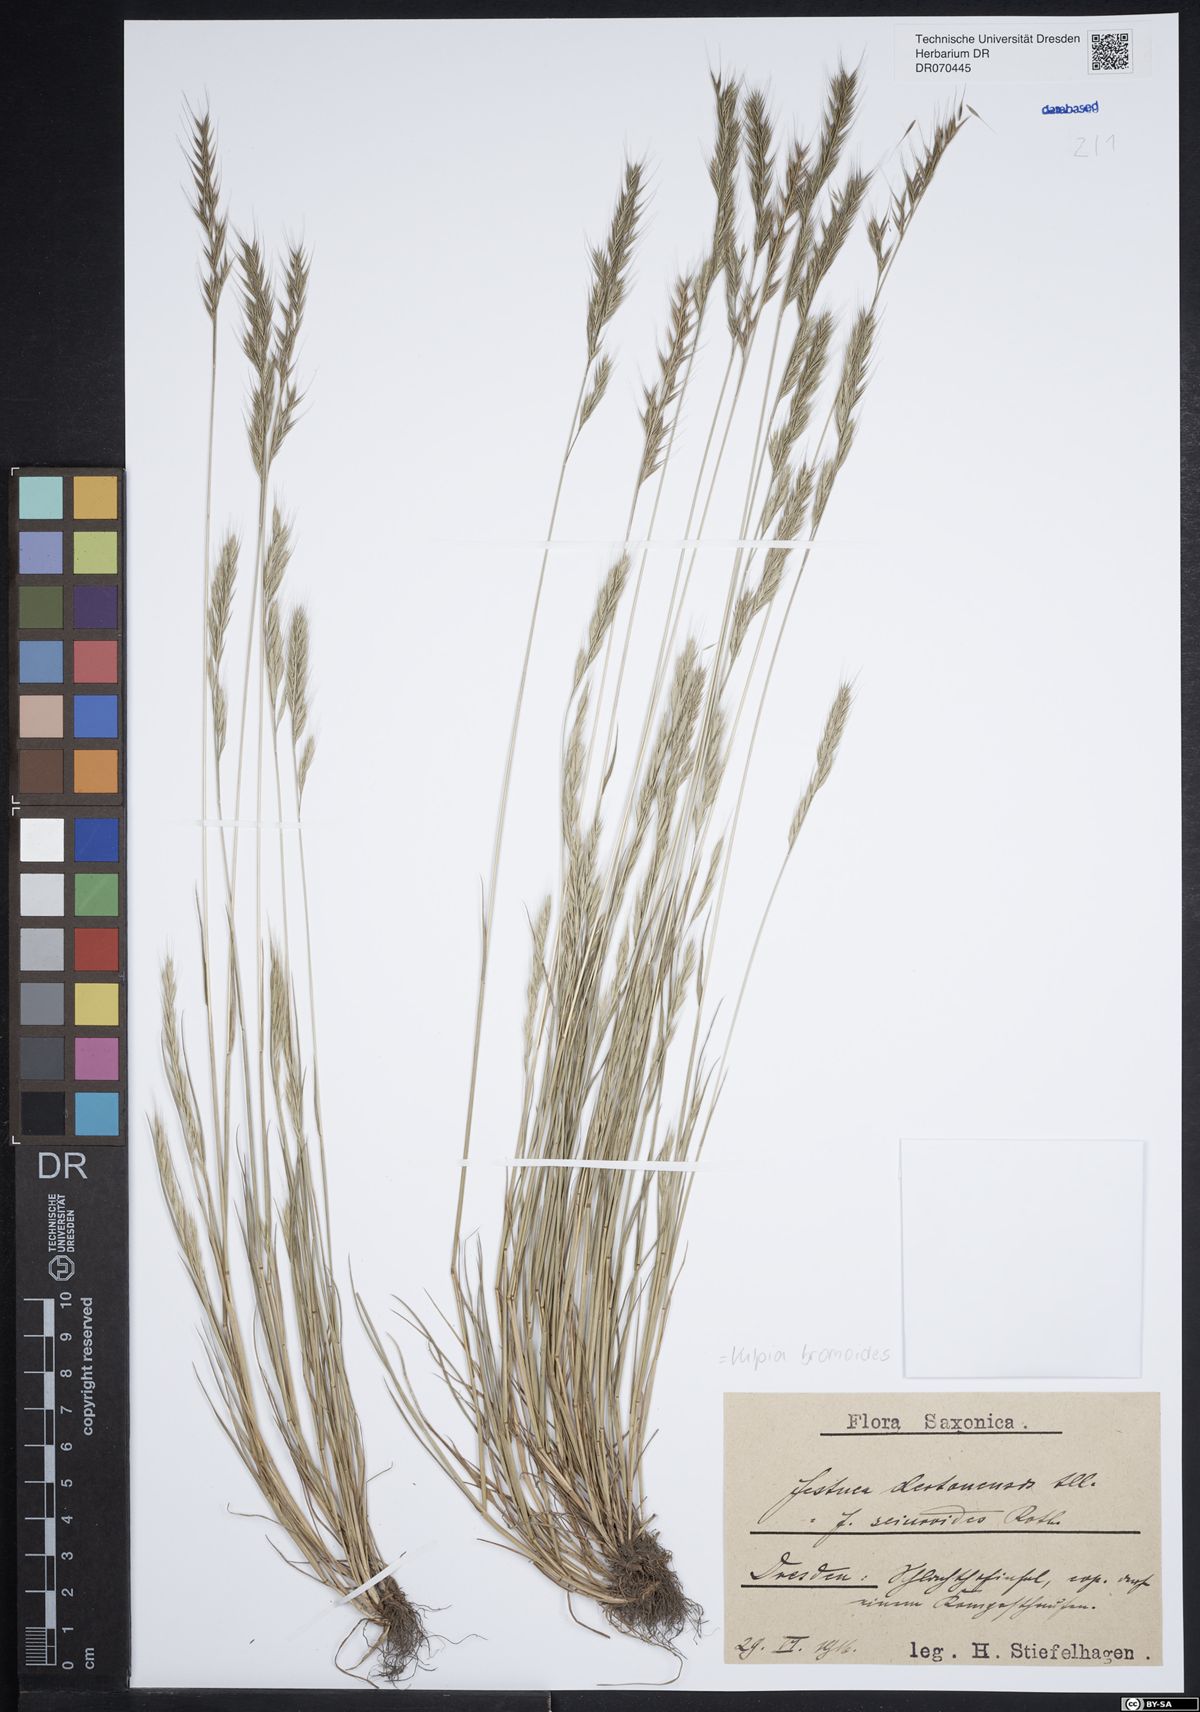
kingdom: Plantae
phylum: Tracheophyta
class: Liliopsida
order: Poales
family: Poaceae
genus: Festuca
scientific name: Festuca bromoides
